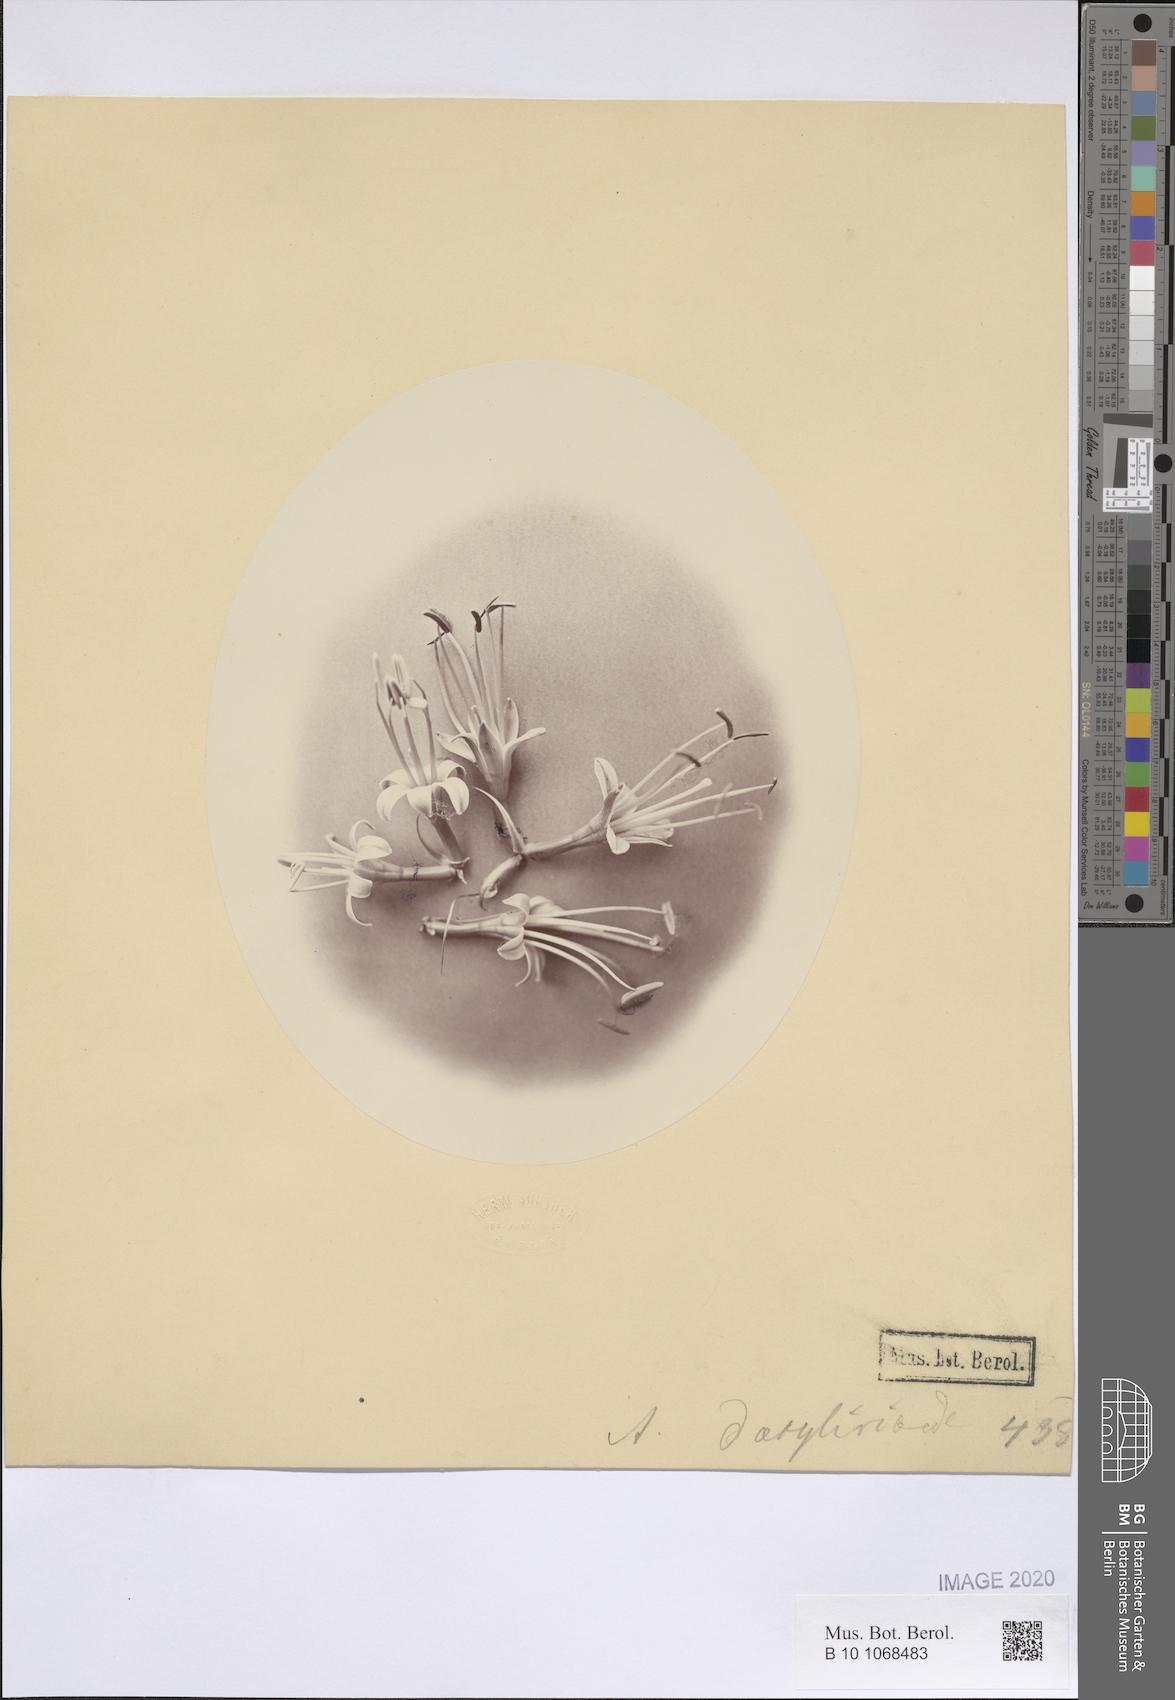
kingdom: Plantae
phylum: Tracheophyta
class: Liliopsida
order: Asparagales
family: Asparagaceae
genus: Agave
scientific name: Agave dealbata
